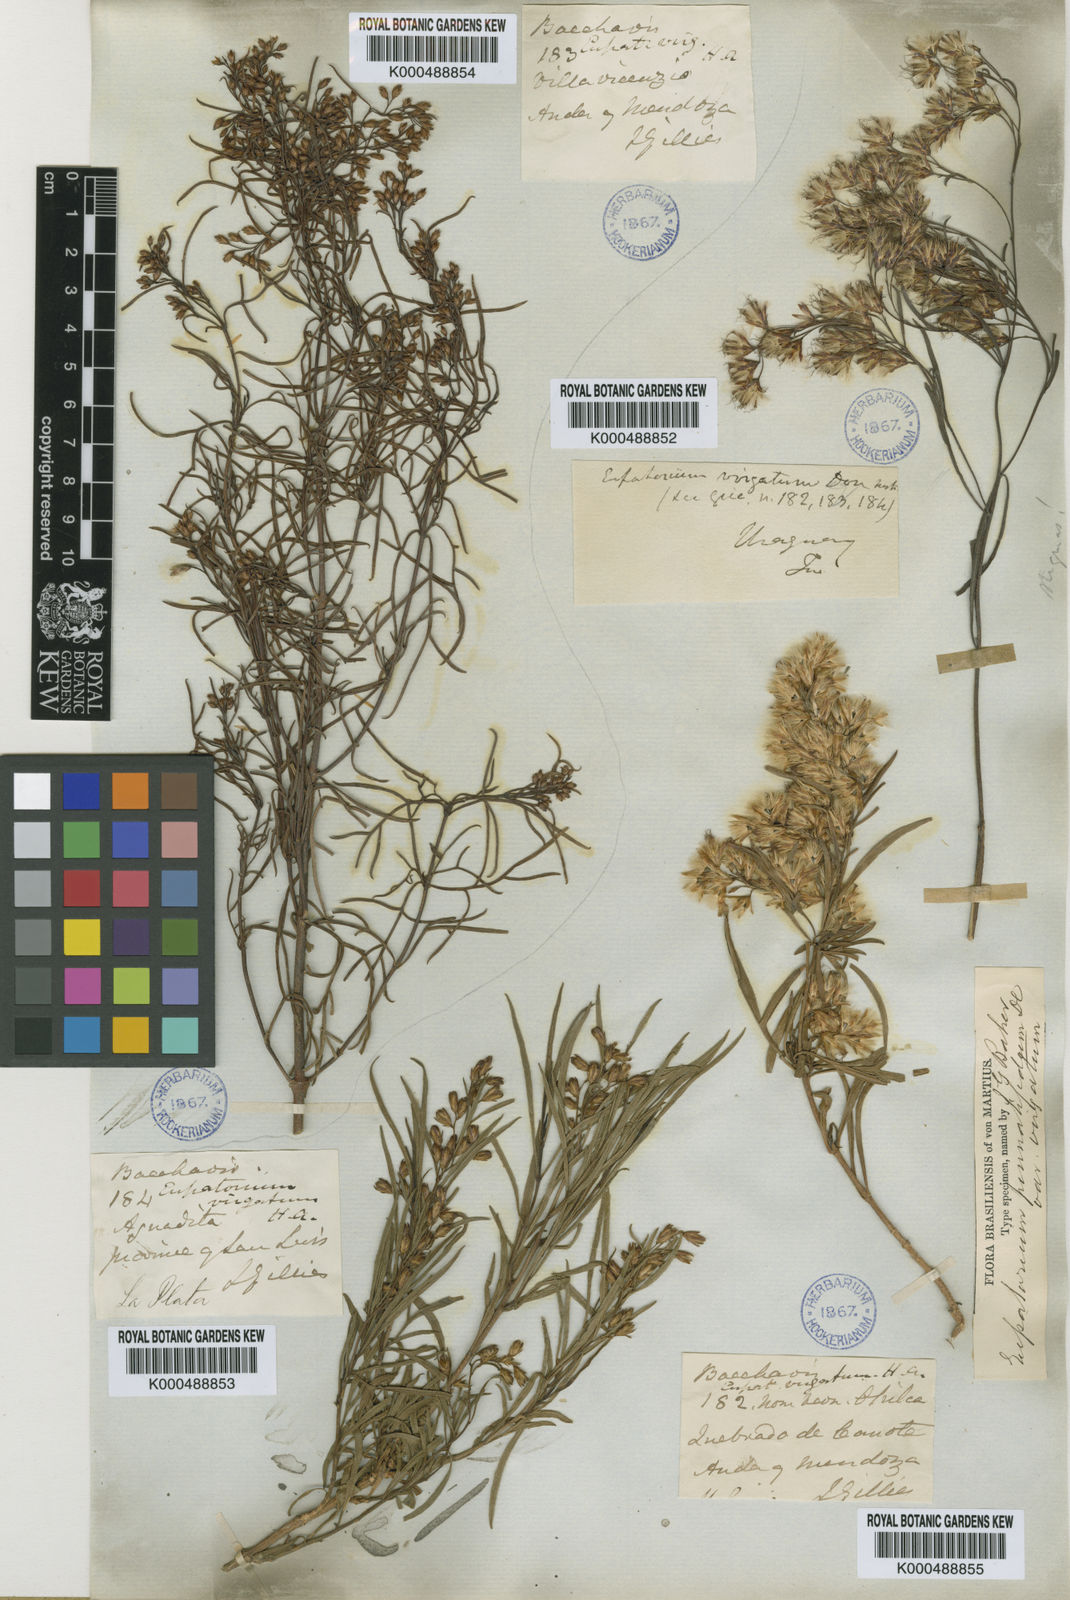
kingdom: Plantae
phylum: Tracheophyta
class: Magnoliopsida
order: Asterales
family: Asteraceae
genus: Acanthostyles
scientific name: Acanthostyles buniifolius
